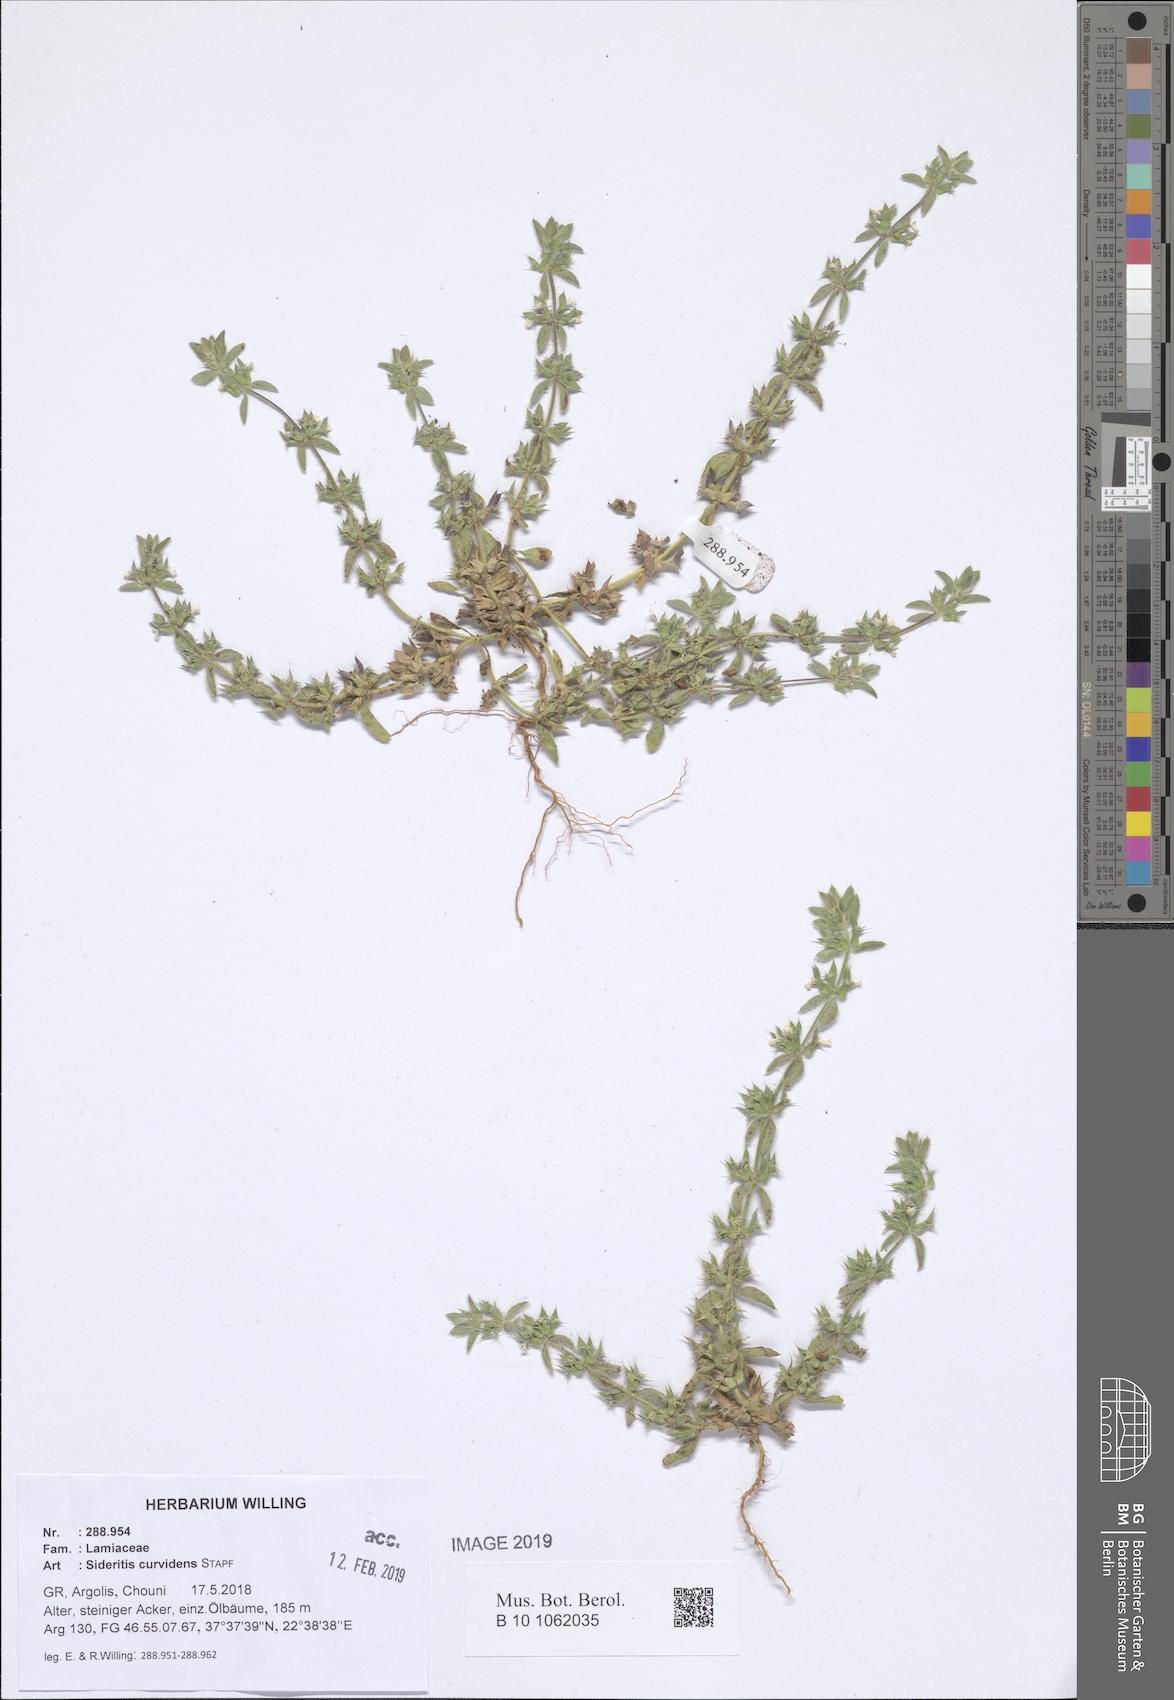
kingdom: Plantae
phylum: Tracheophyta
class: Magnoliopsida
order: Lamiales
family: Lamiaceae
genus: Sideritis
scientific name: Sideritis romana
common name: Simplebeak ironwort
